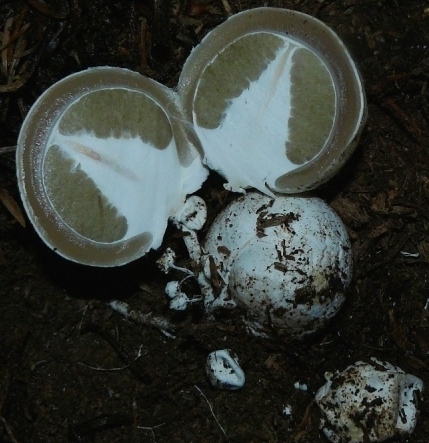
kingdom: Fungi
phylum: Basidiomycota
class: Agaricomycetes
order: Phallales
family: Phallaceae
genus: Phallus
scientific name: Phallus impudicus
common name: almindelig stinksvamp
